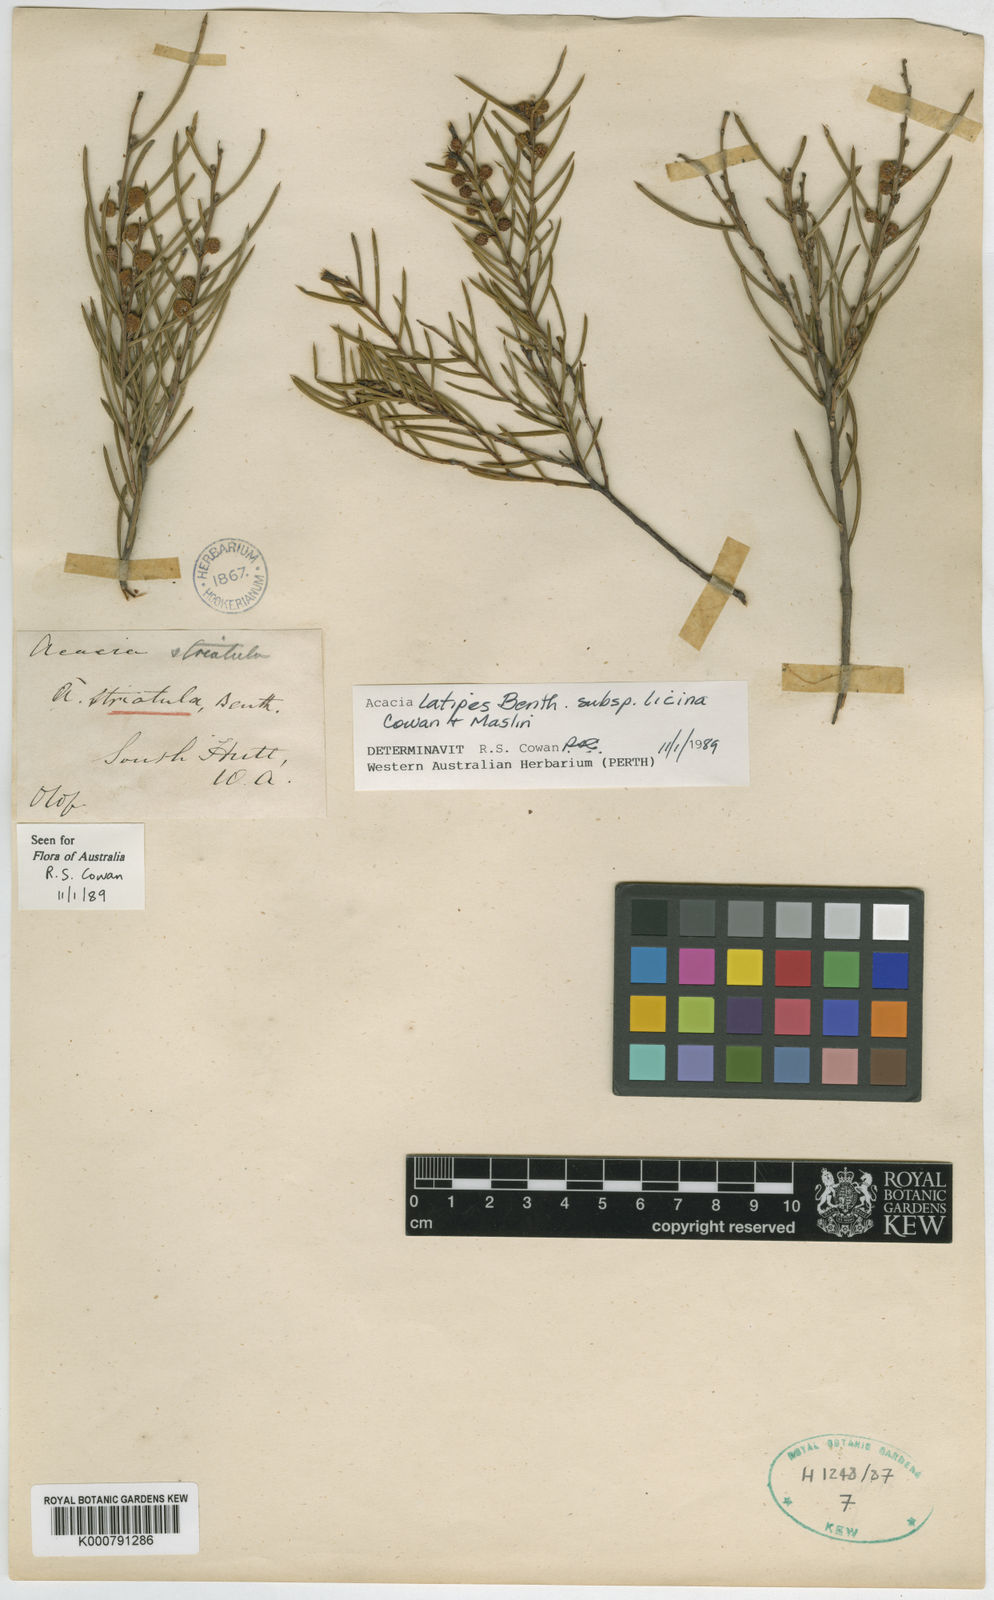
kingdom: Plantae
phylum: Tracheophyta
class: Magnoliopsida
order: Fabales
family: Fabaceae
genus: Acacia
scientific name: Acacia latipes
